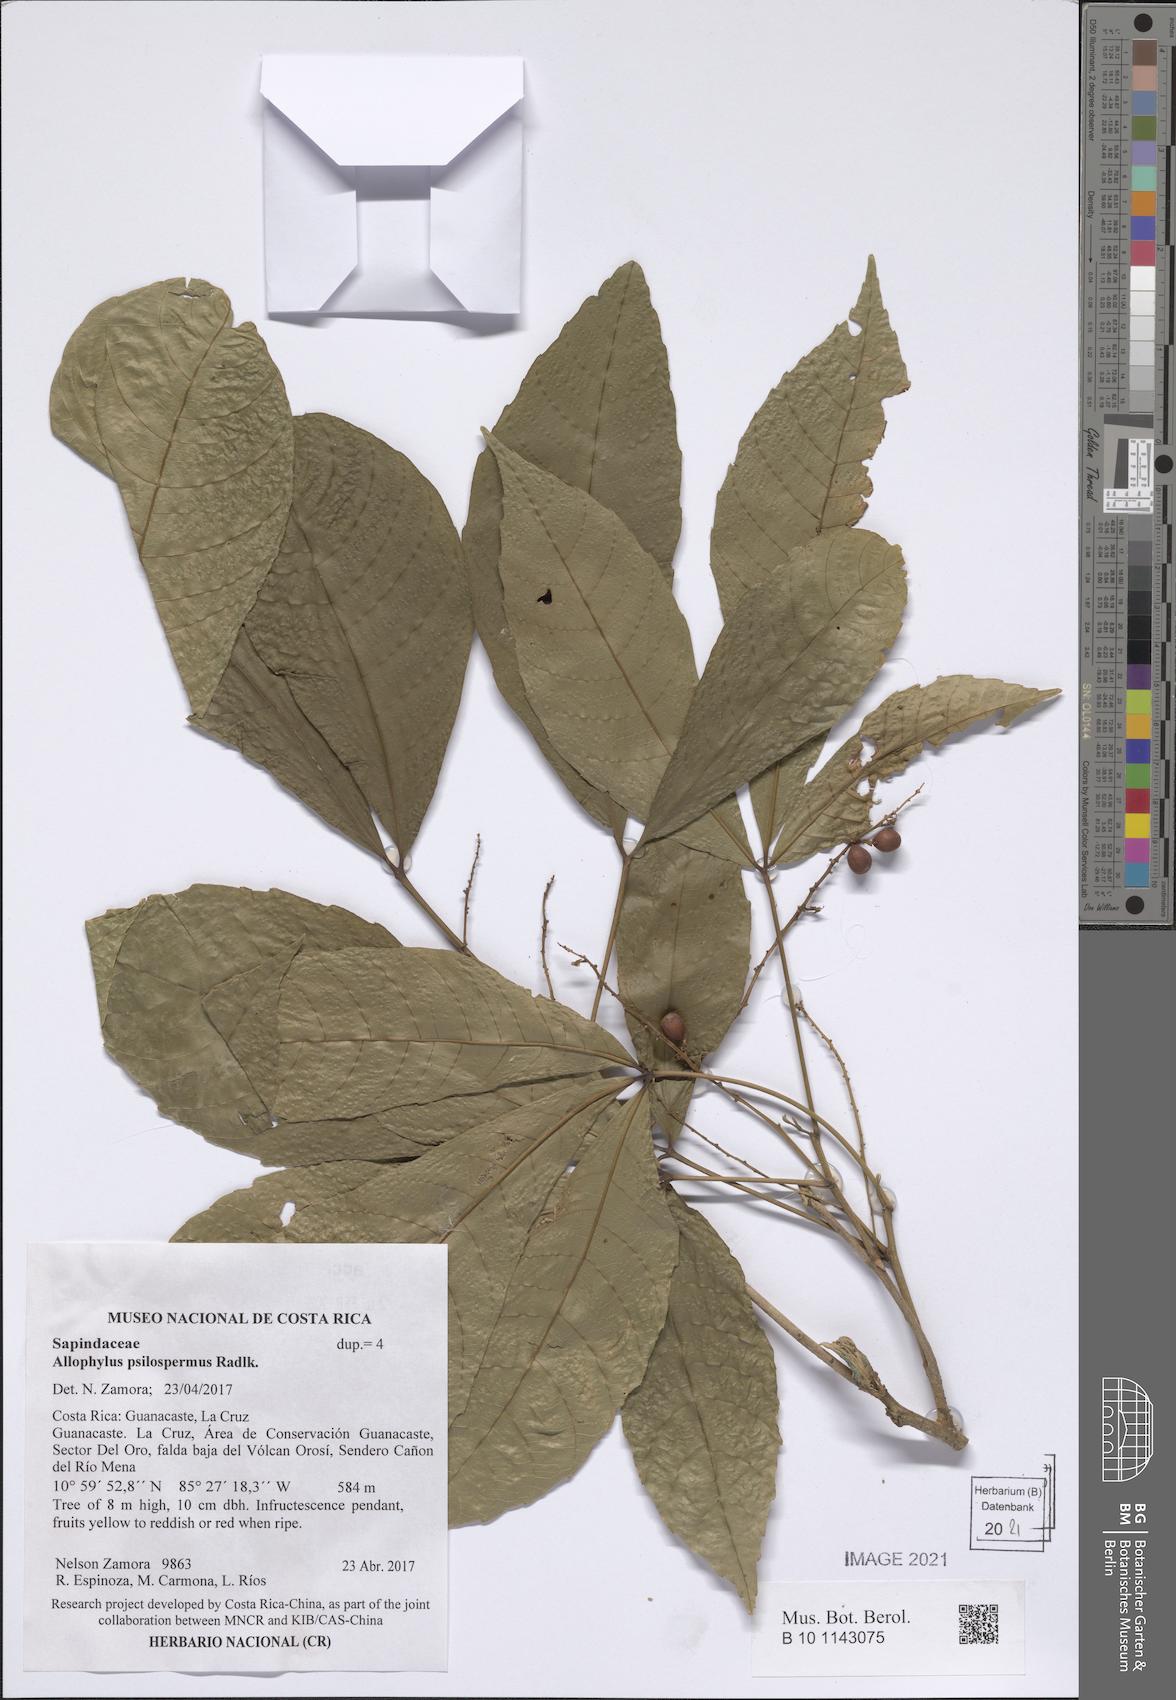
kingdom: Plantae
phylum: Tracheophyta
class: Magnoliopsida
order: Sapindales
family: Sapindaceae
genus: Allophylus
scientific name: Allophylus psilospermus
